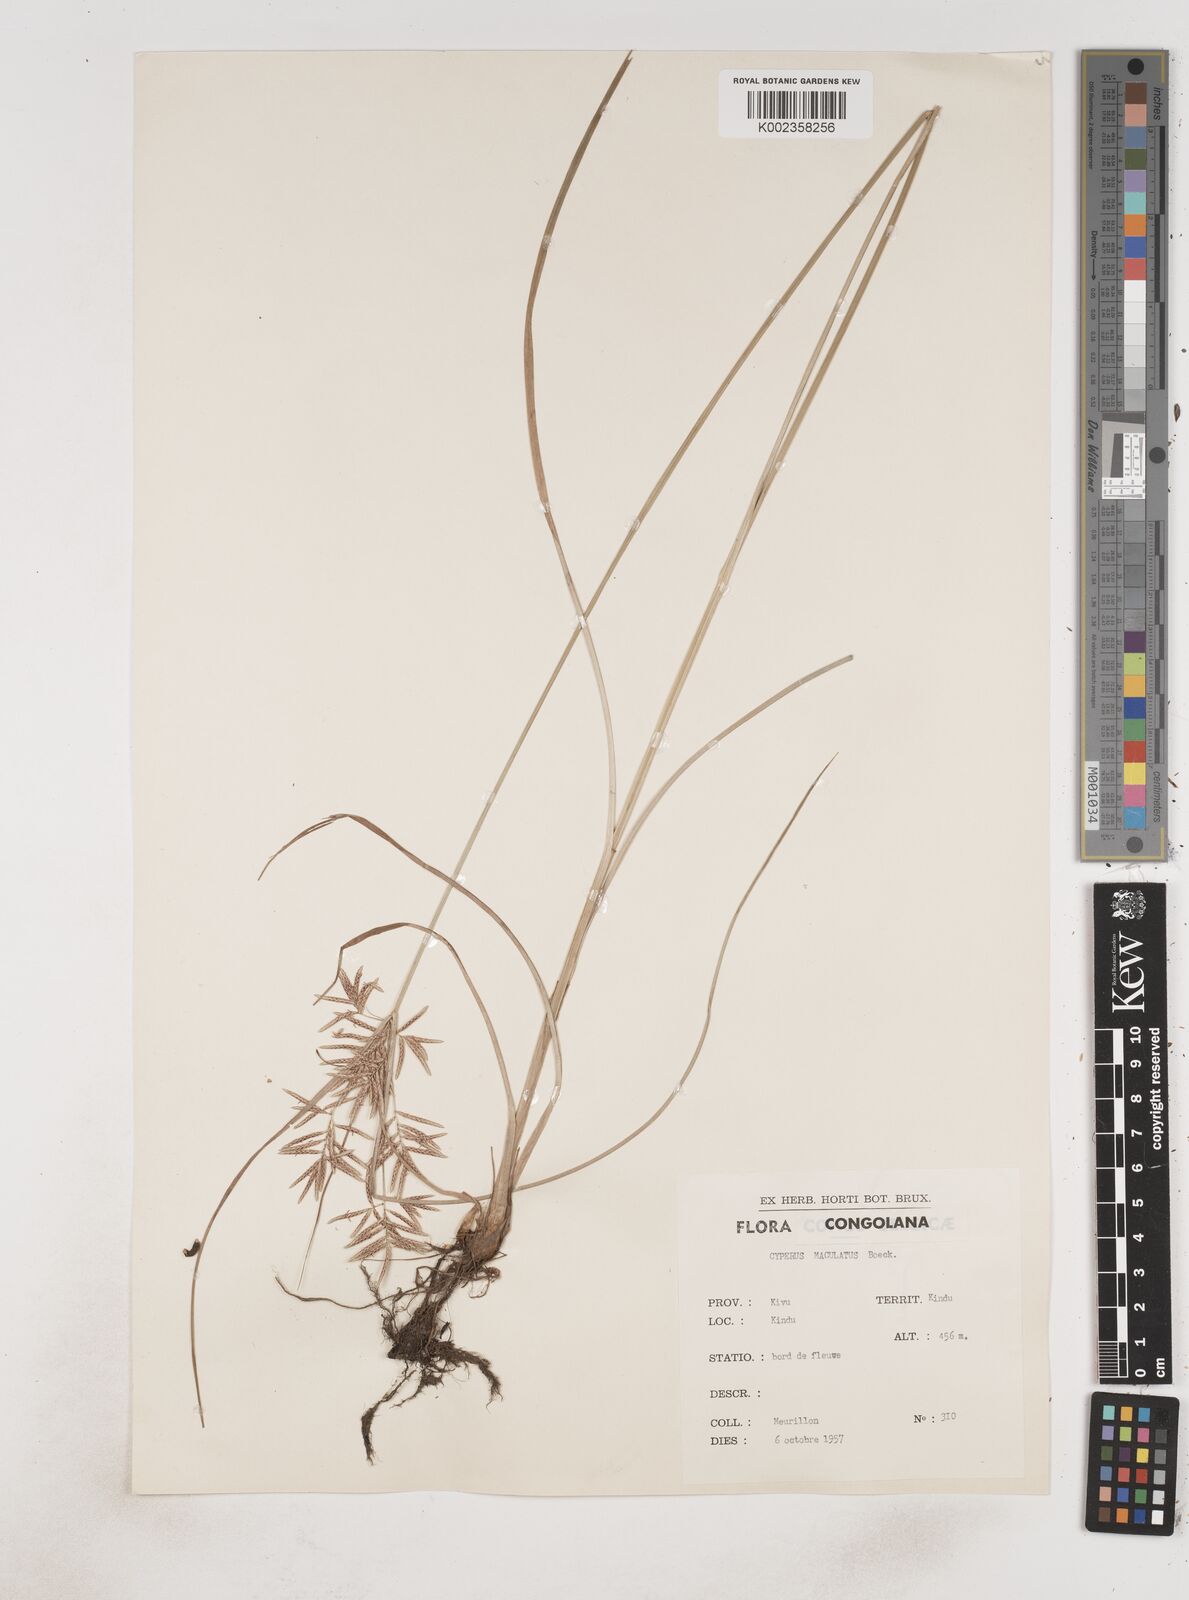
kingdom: Plantae
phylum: Tracheophyta
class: Liliopsida
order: Poales
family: Cyperaceae
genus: Cyperus
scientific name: Cyperus maculatus
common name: Maculated sedge
